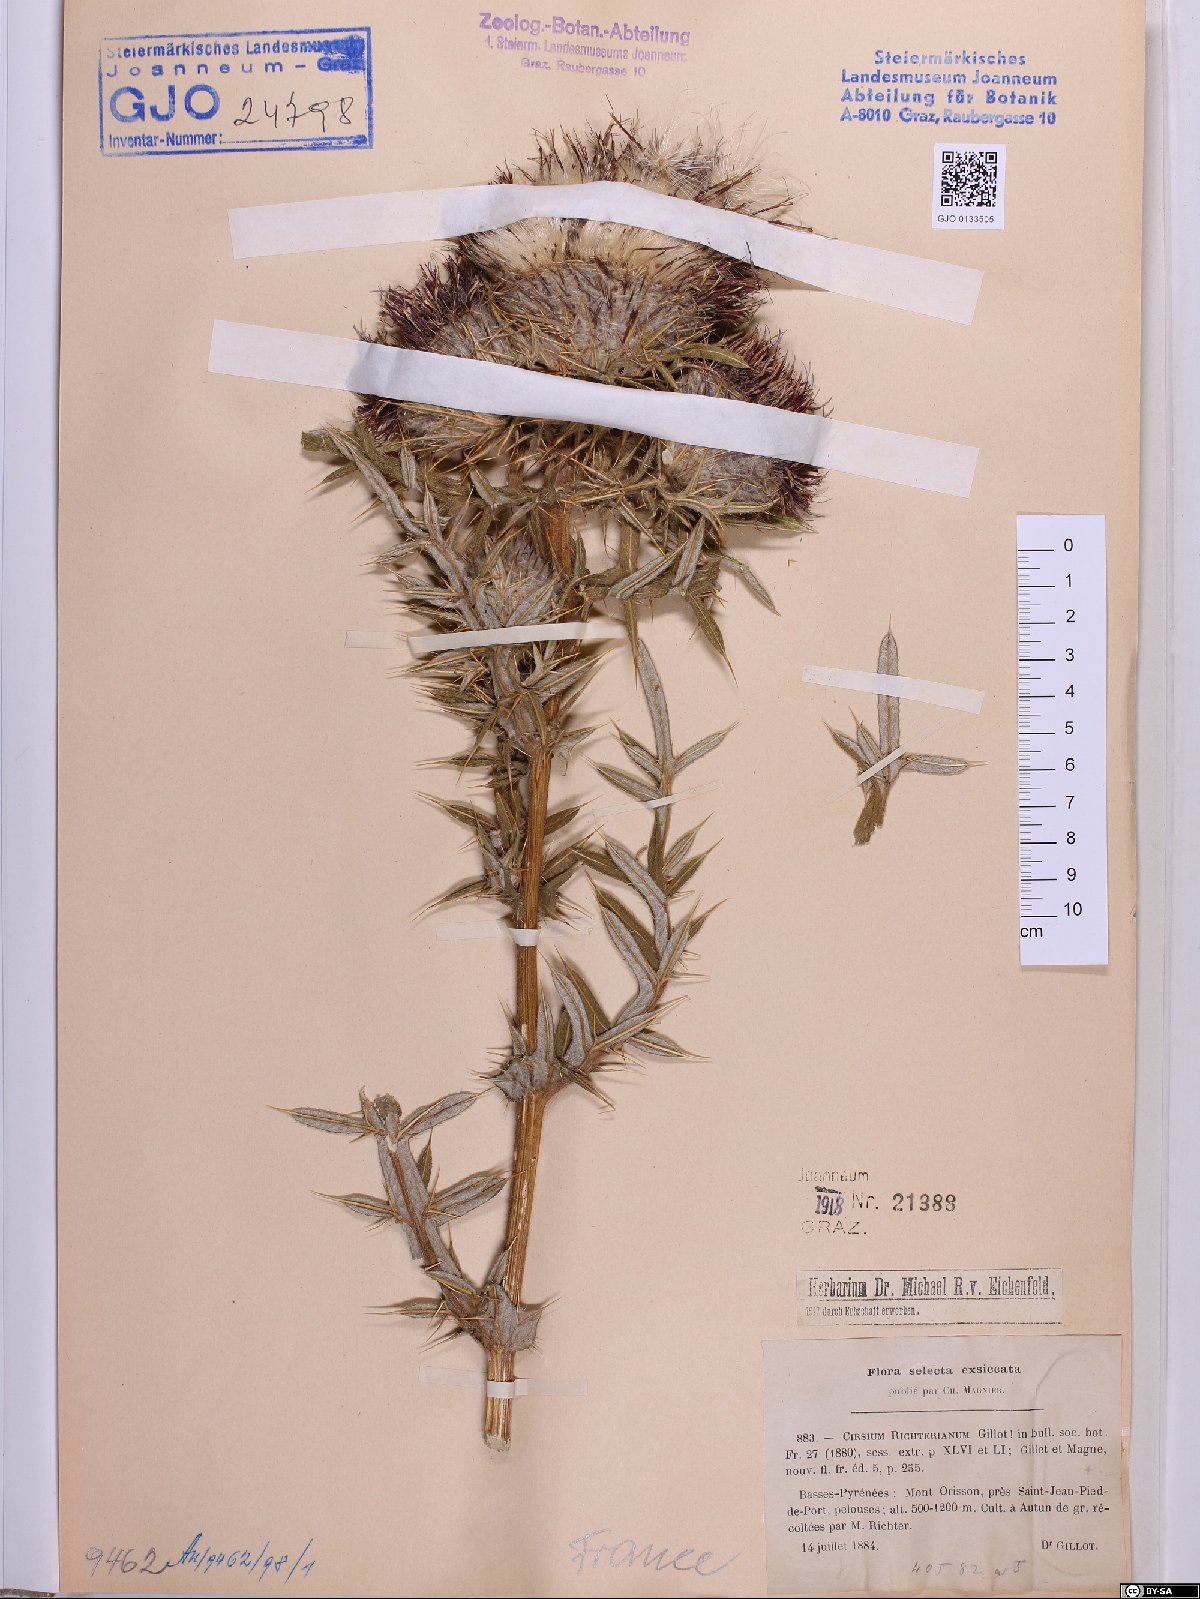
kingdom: Plantae
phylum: Tracheophyta
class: Magnoliopsida
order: Asterales
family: Asteraceae
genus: Lophiolepis
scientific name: Lophiolepis richteriana
